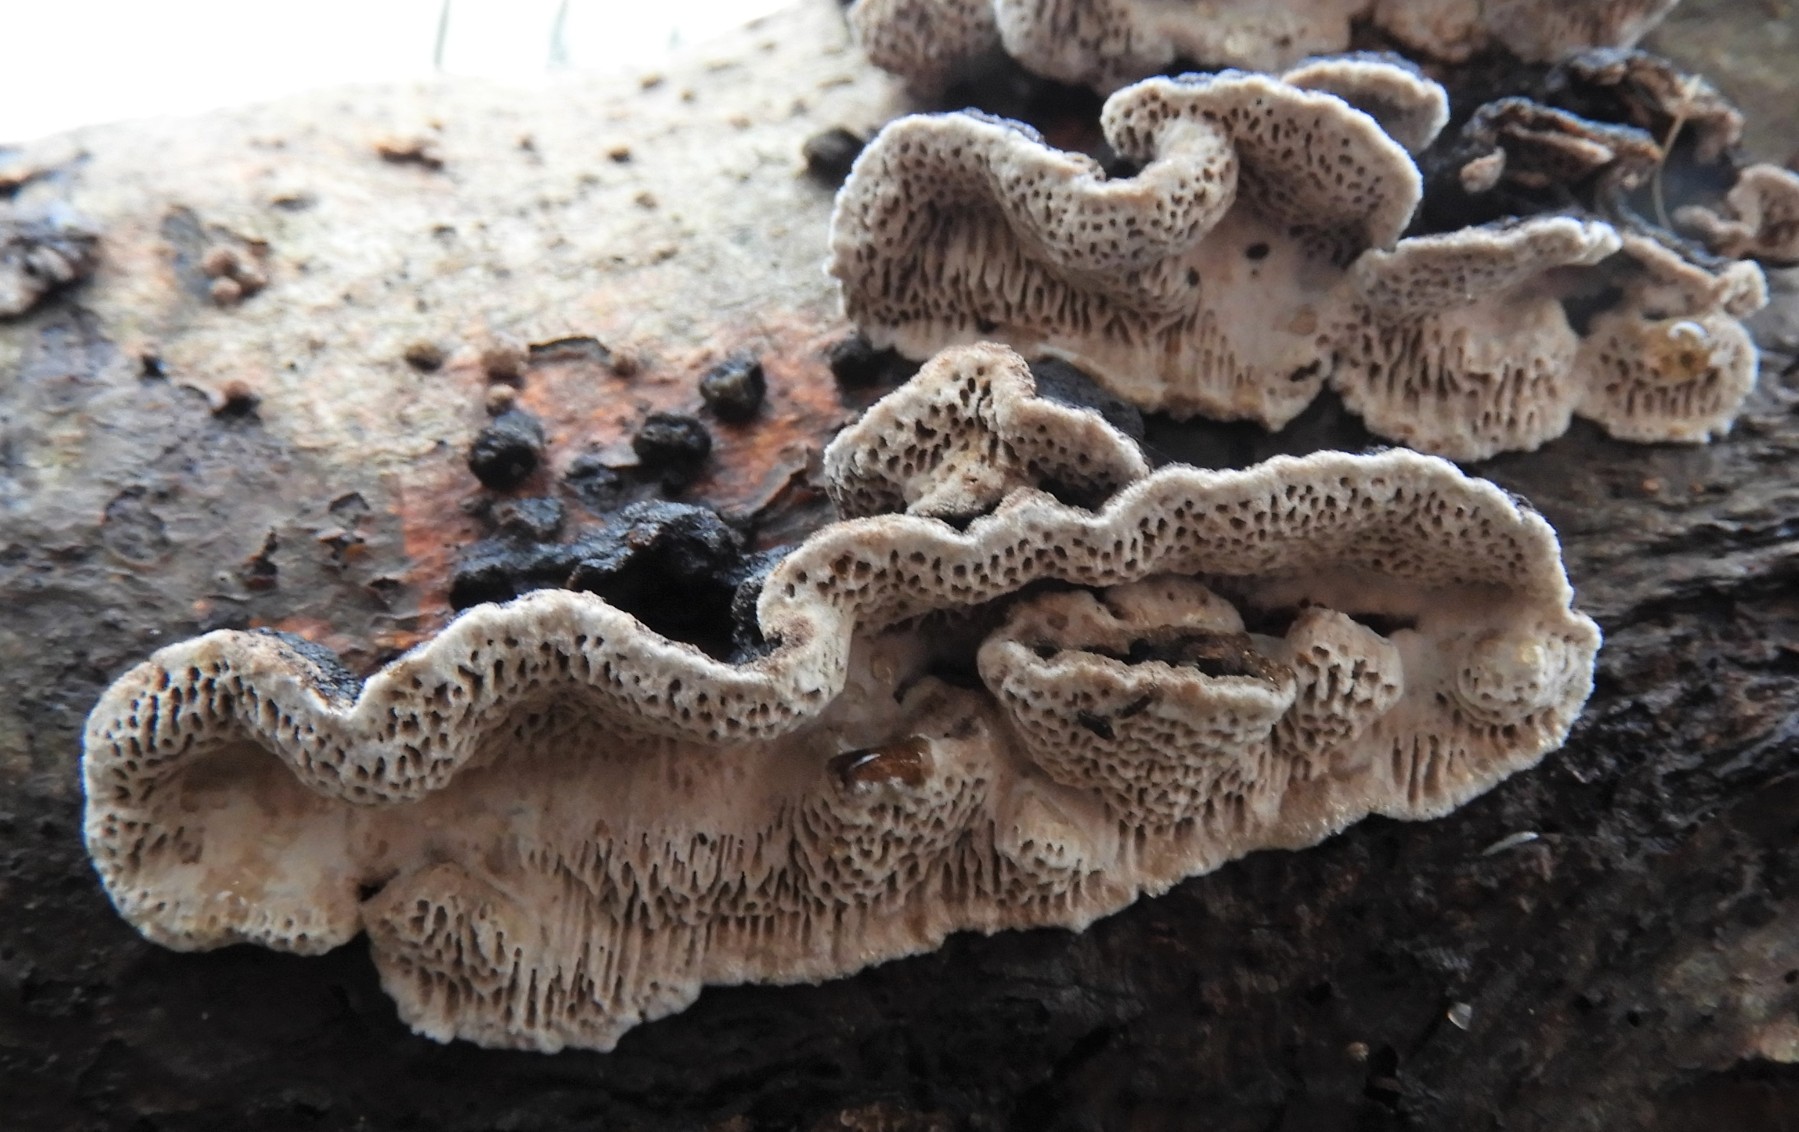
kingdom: Fungi
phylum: Basidiomycota
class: Agaricomycetes
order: Polyporales
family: Polyporaceae
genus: Podofomes
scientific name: Podofomes mollis
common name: blød begporesvamp
